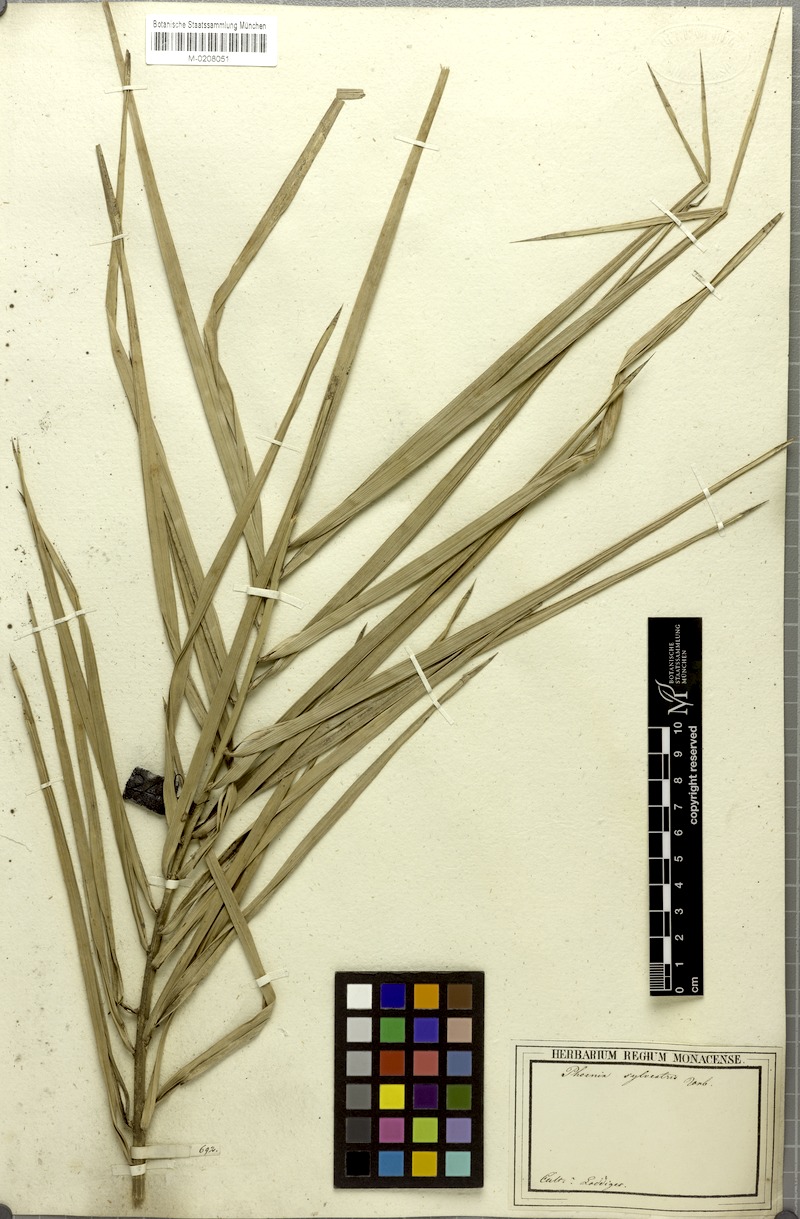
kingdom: Plantae
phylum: Tracheophyta
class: Liliopsida
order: Arecales
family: Arecaceae
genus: Phoenix
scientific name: Phoenix sylvestris
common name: Wild date palm
